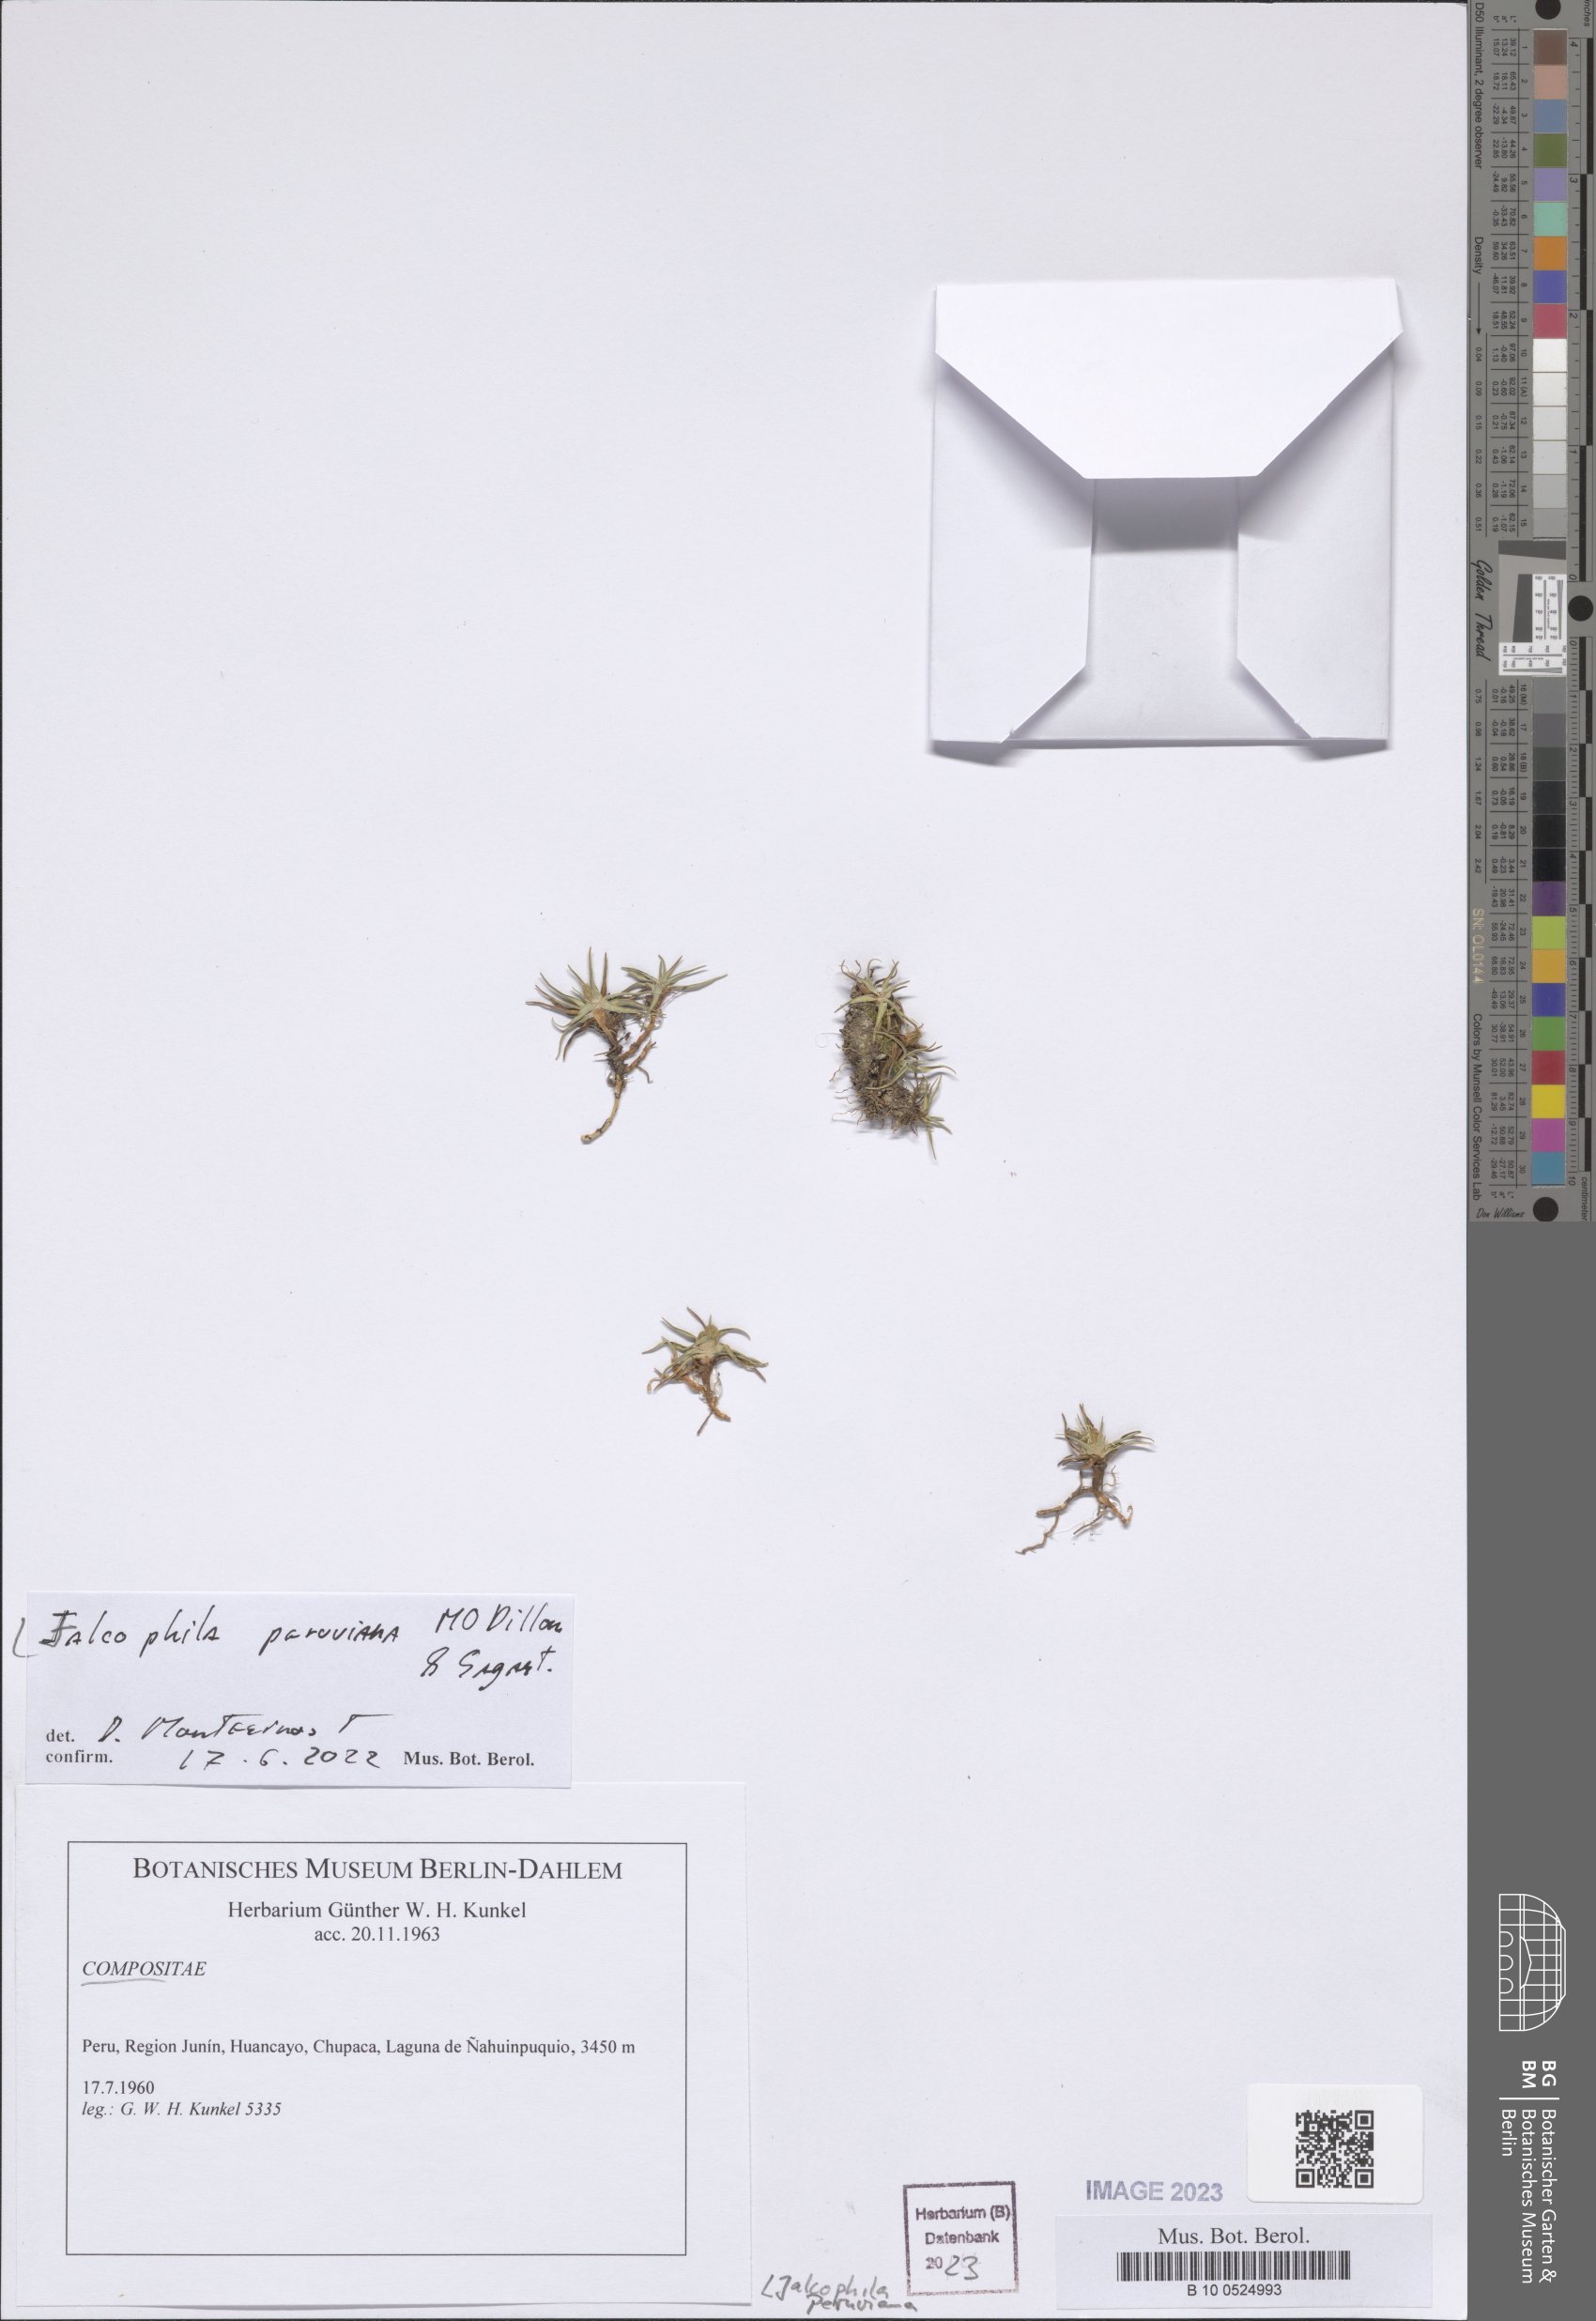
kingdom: Plantae
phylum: Tracheophyta
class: Magnoliopsida
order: Asterales
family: Asteraceae
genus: Jalcophila
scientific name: Jalcophila peruviana
